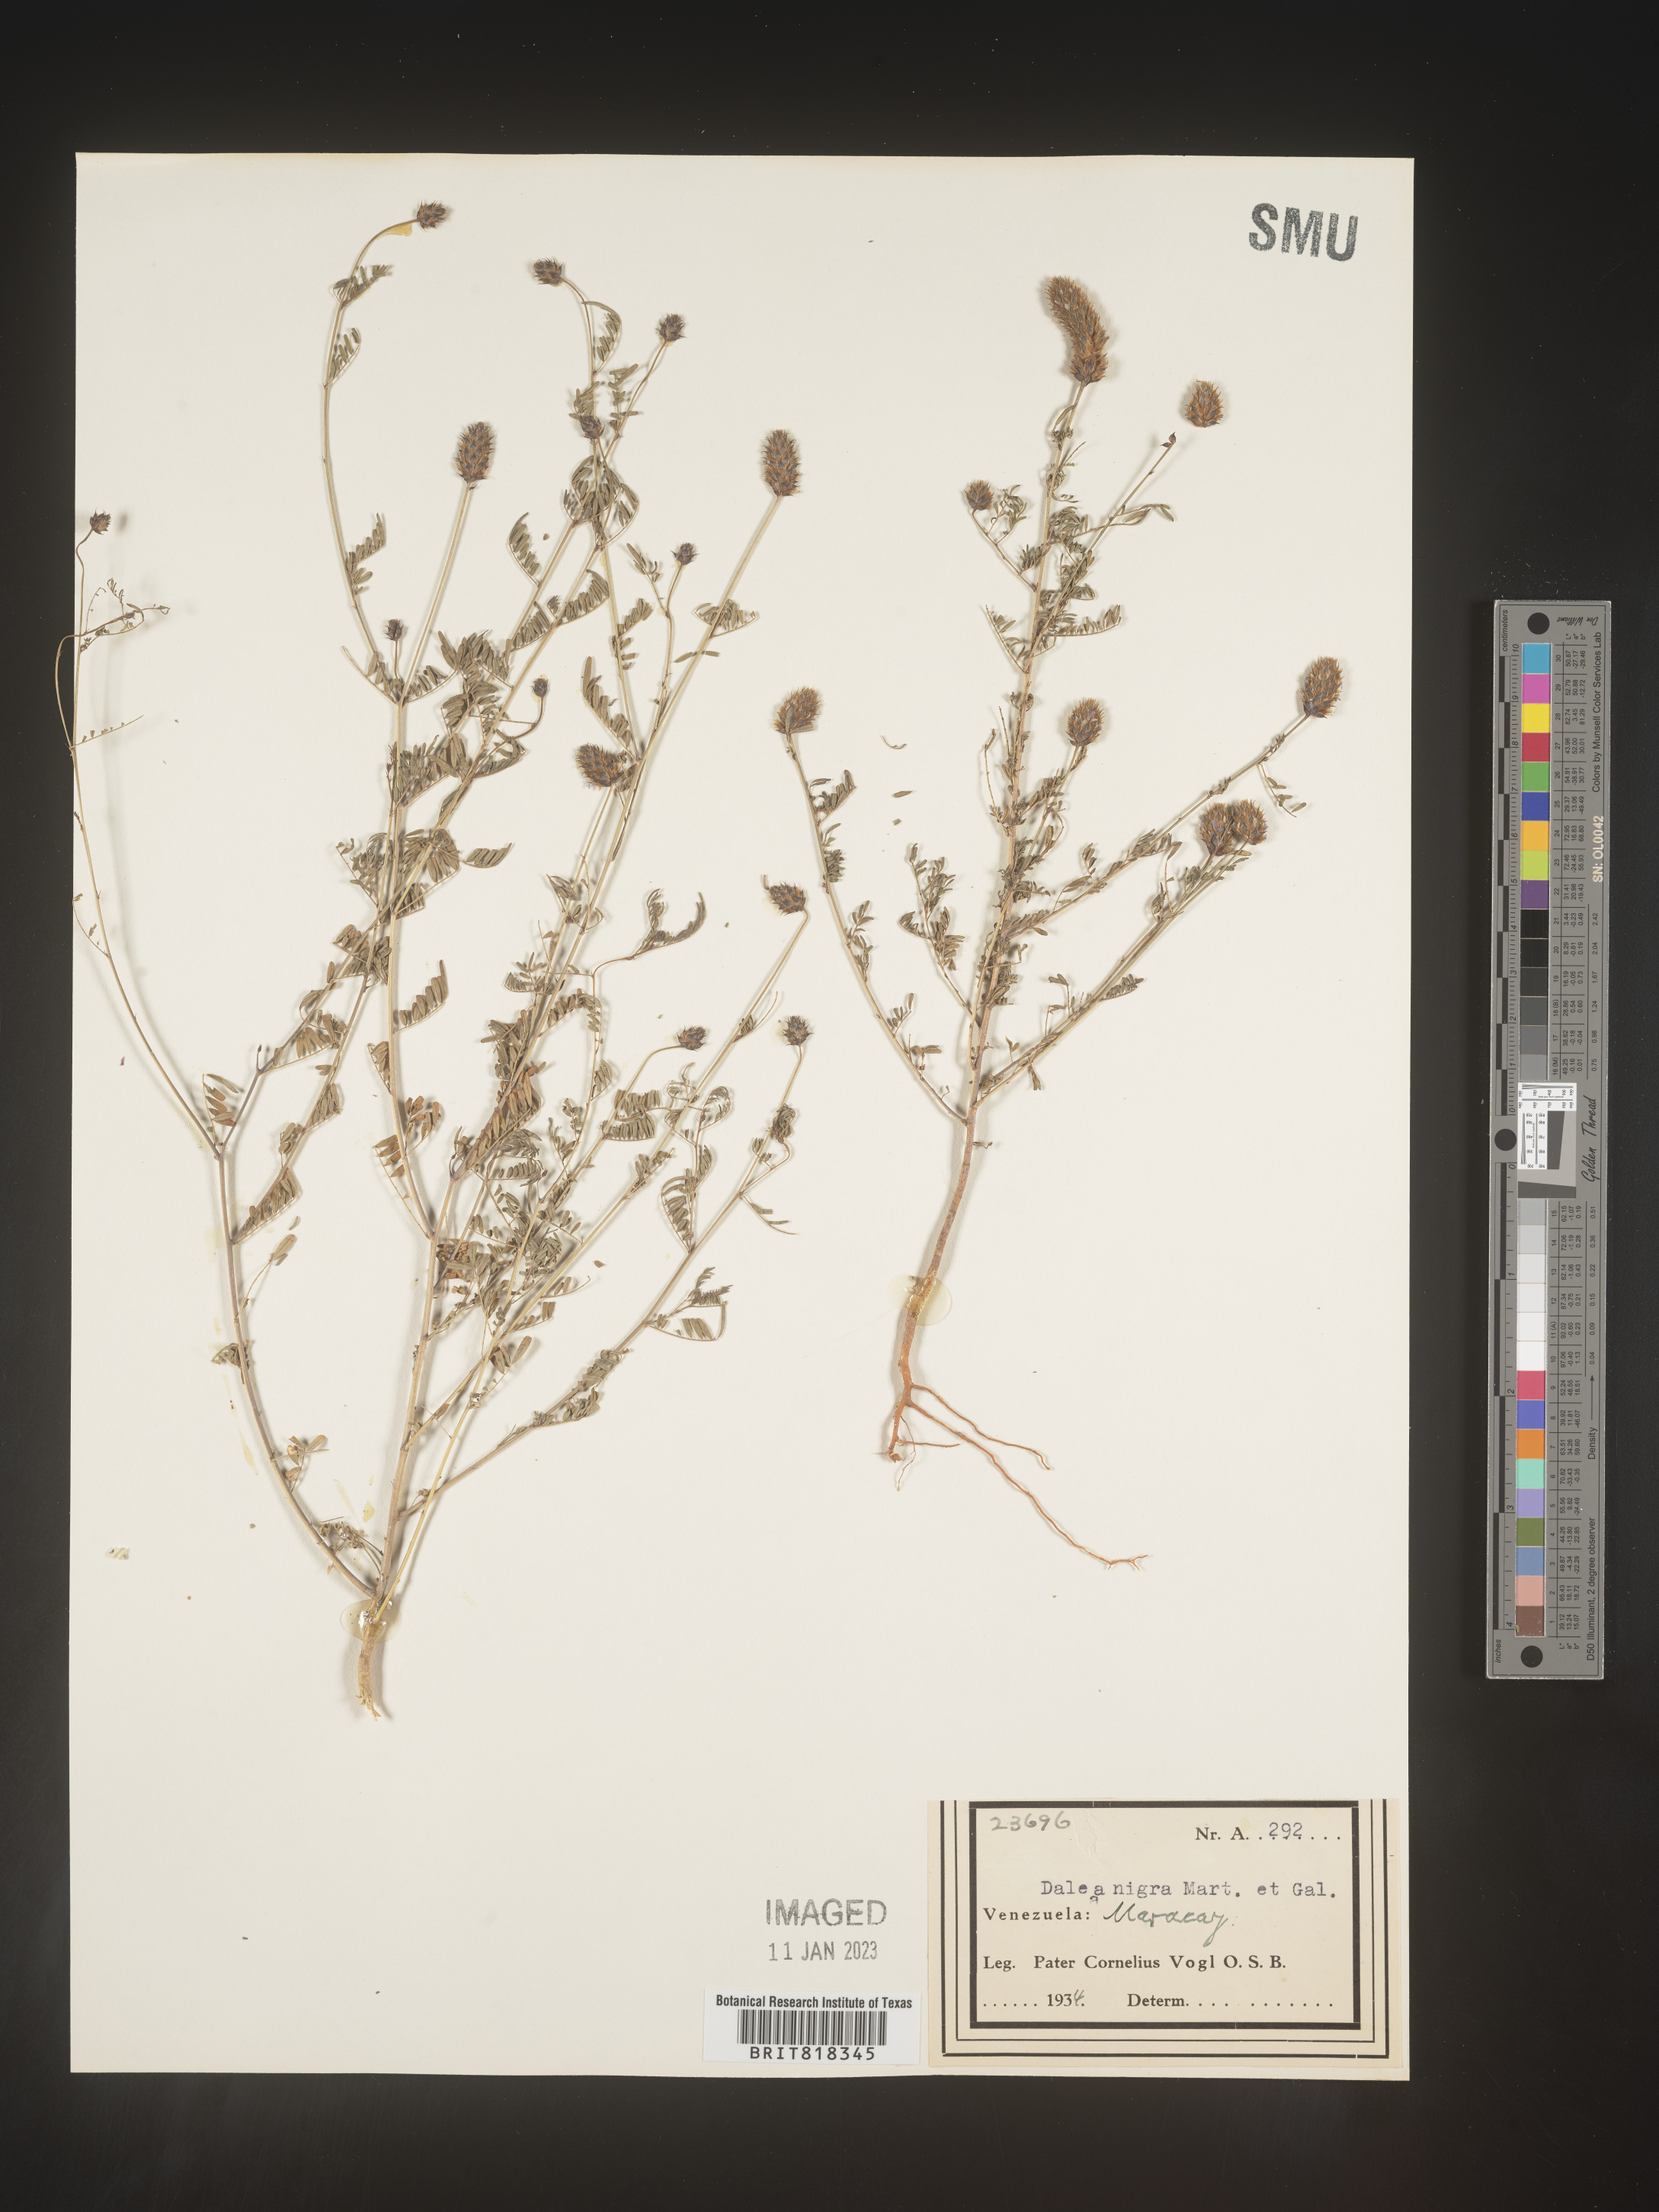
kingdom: Plantae
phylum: Tracheophyta
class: Magnoliopsida
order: Fabales
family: Fabaceae
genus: Dalea
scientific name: Dalea
